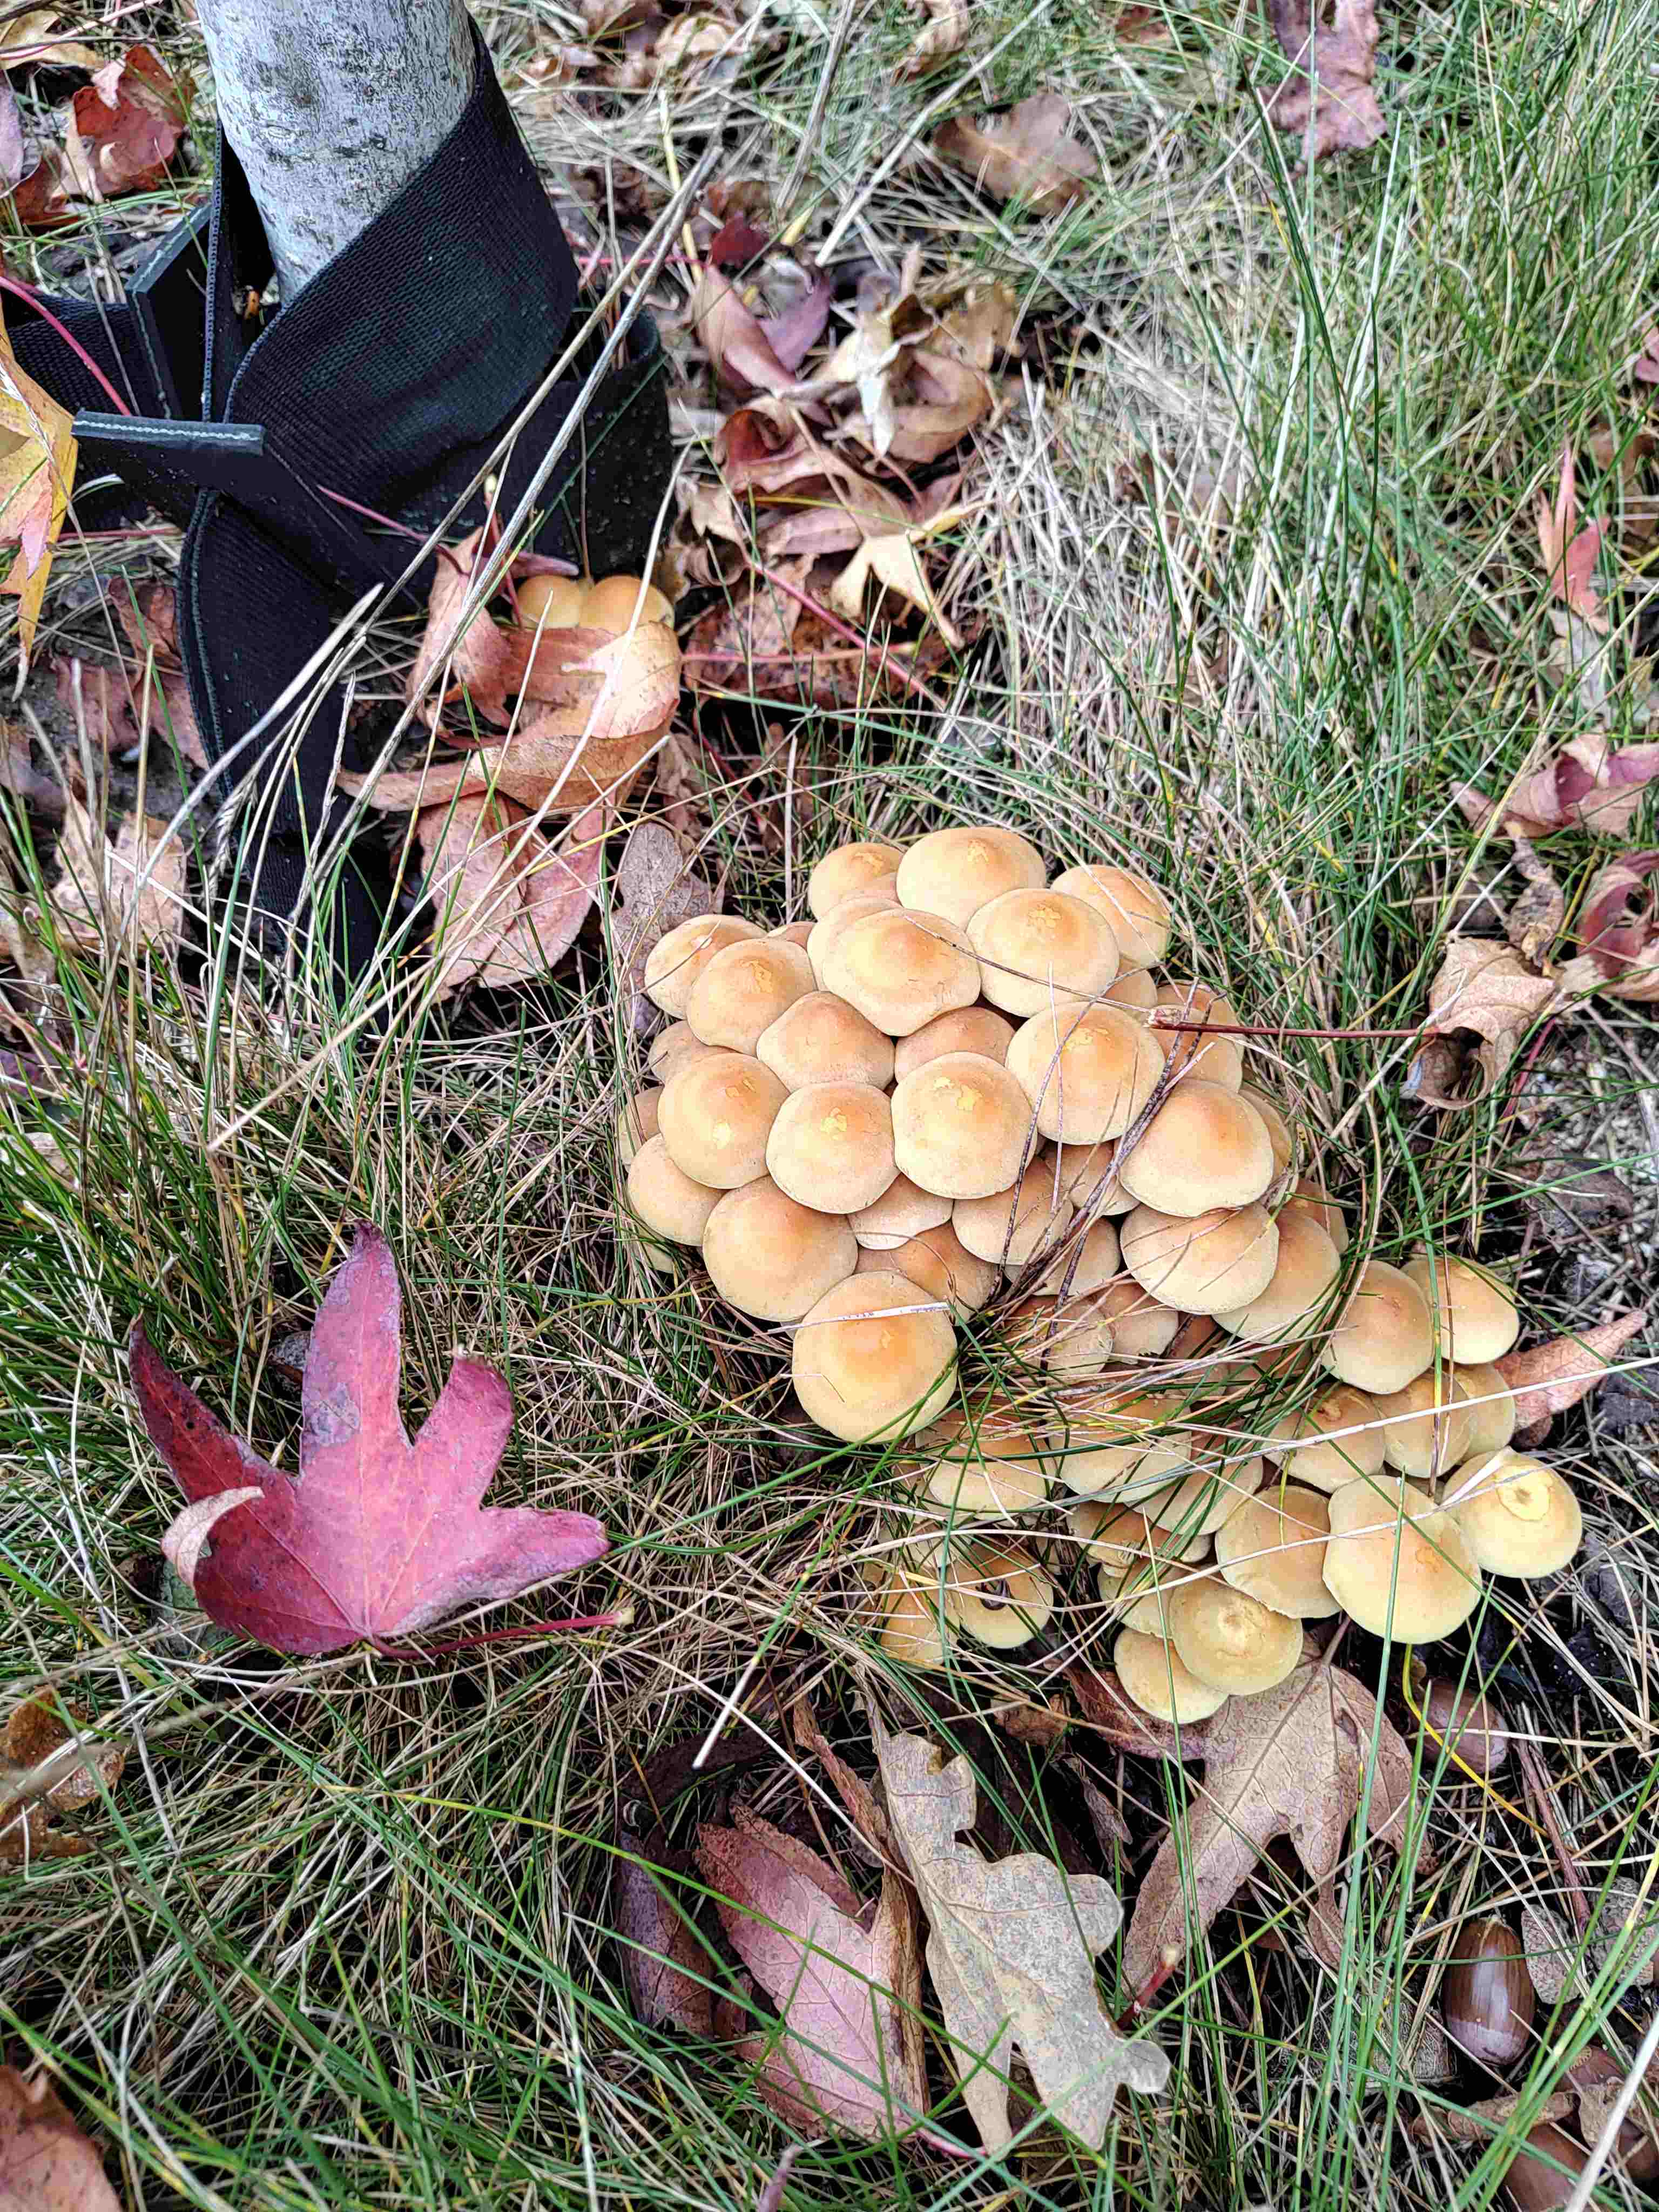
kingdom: Fungi
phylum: Basidiomycota
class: Agaricomycetes
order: Agaricales
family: Strophariaceae
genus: Hypholoma
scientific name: Hypholoma fasciculare
